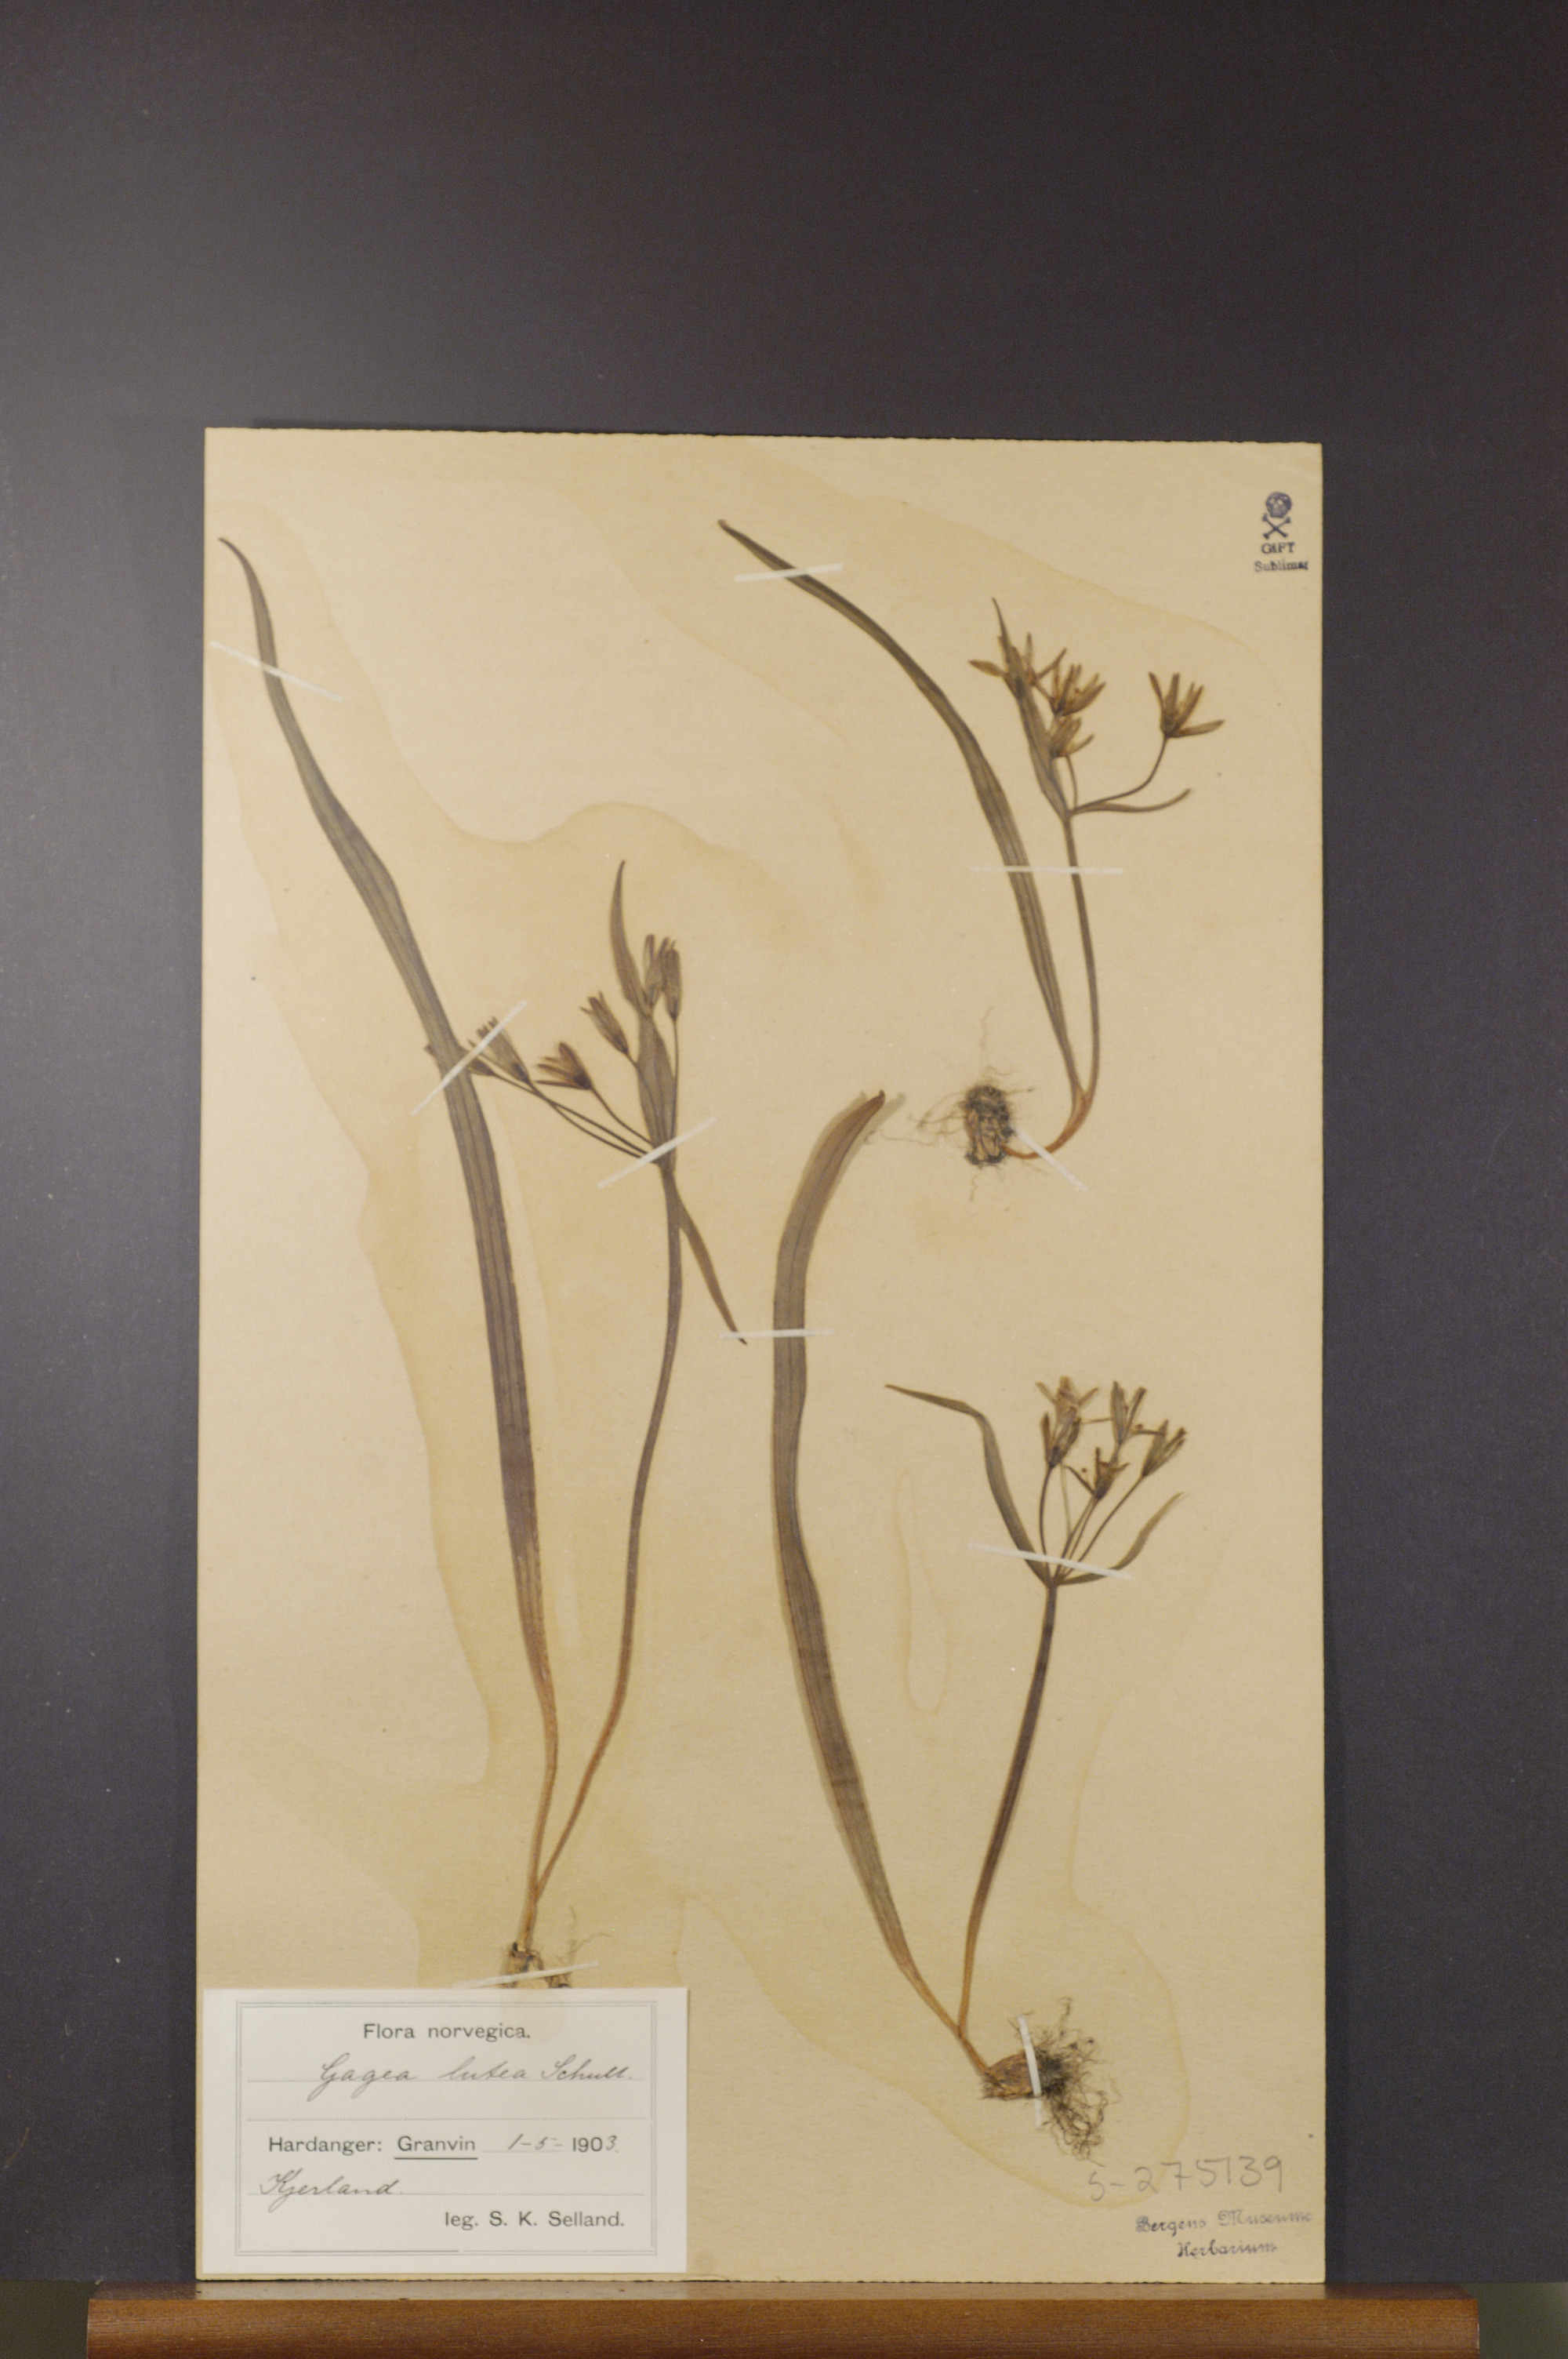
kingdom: Plantae
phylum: Tracheophyta
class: Liliopsida
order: Liliales
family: Liliaceae
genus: Gagea
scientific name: Gagea lutea
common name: Yellow star-of-bethlehem
